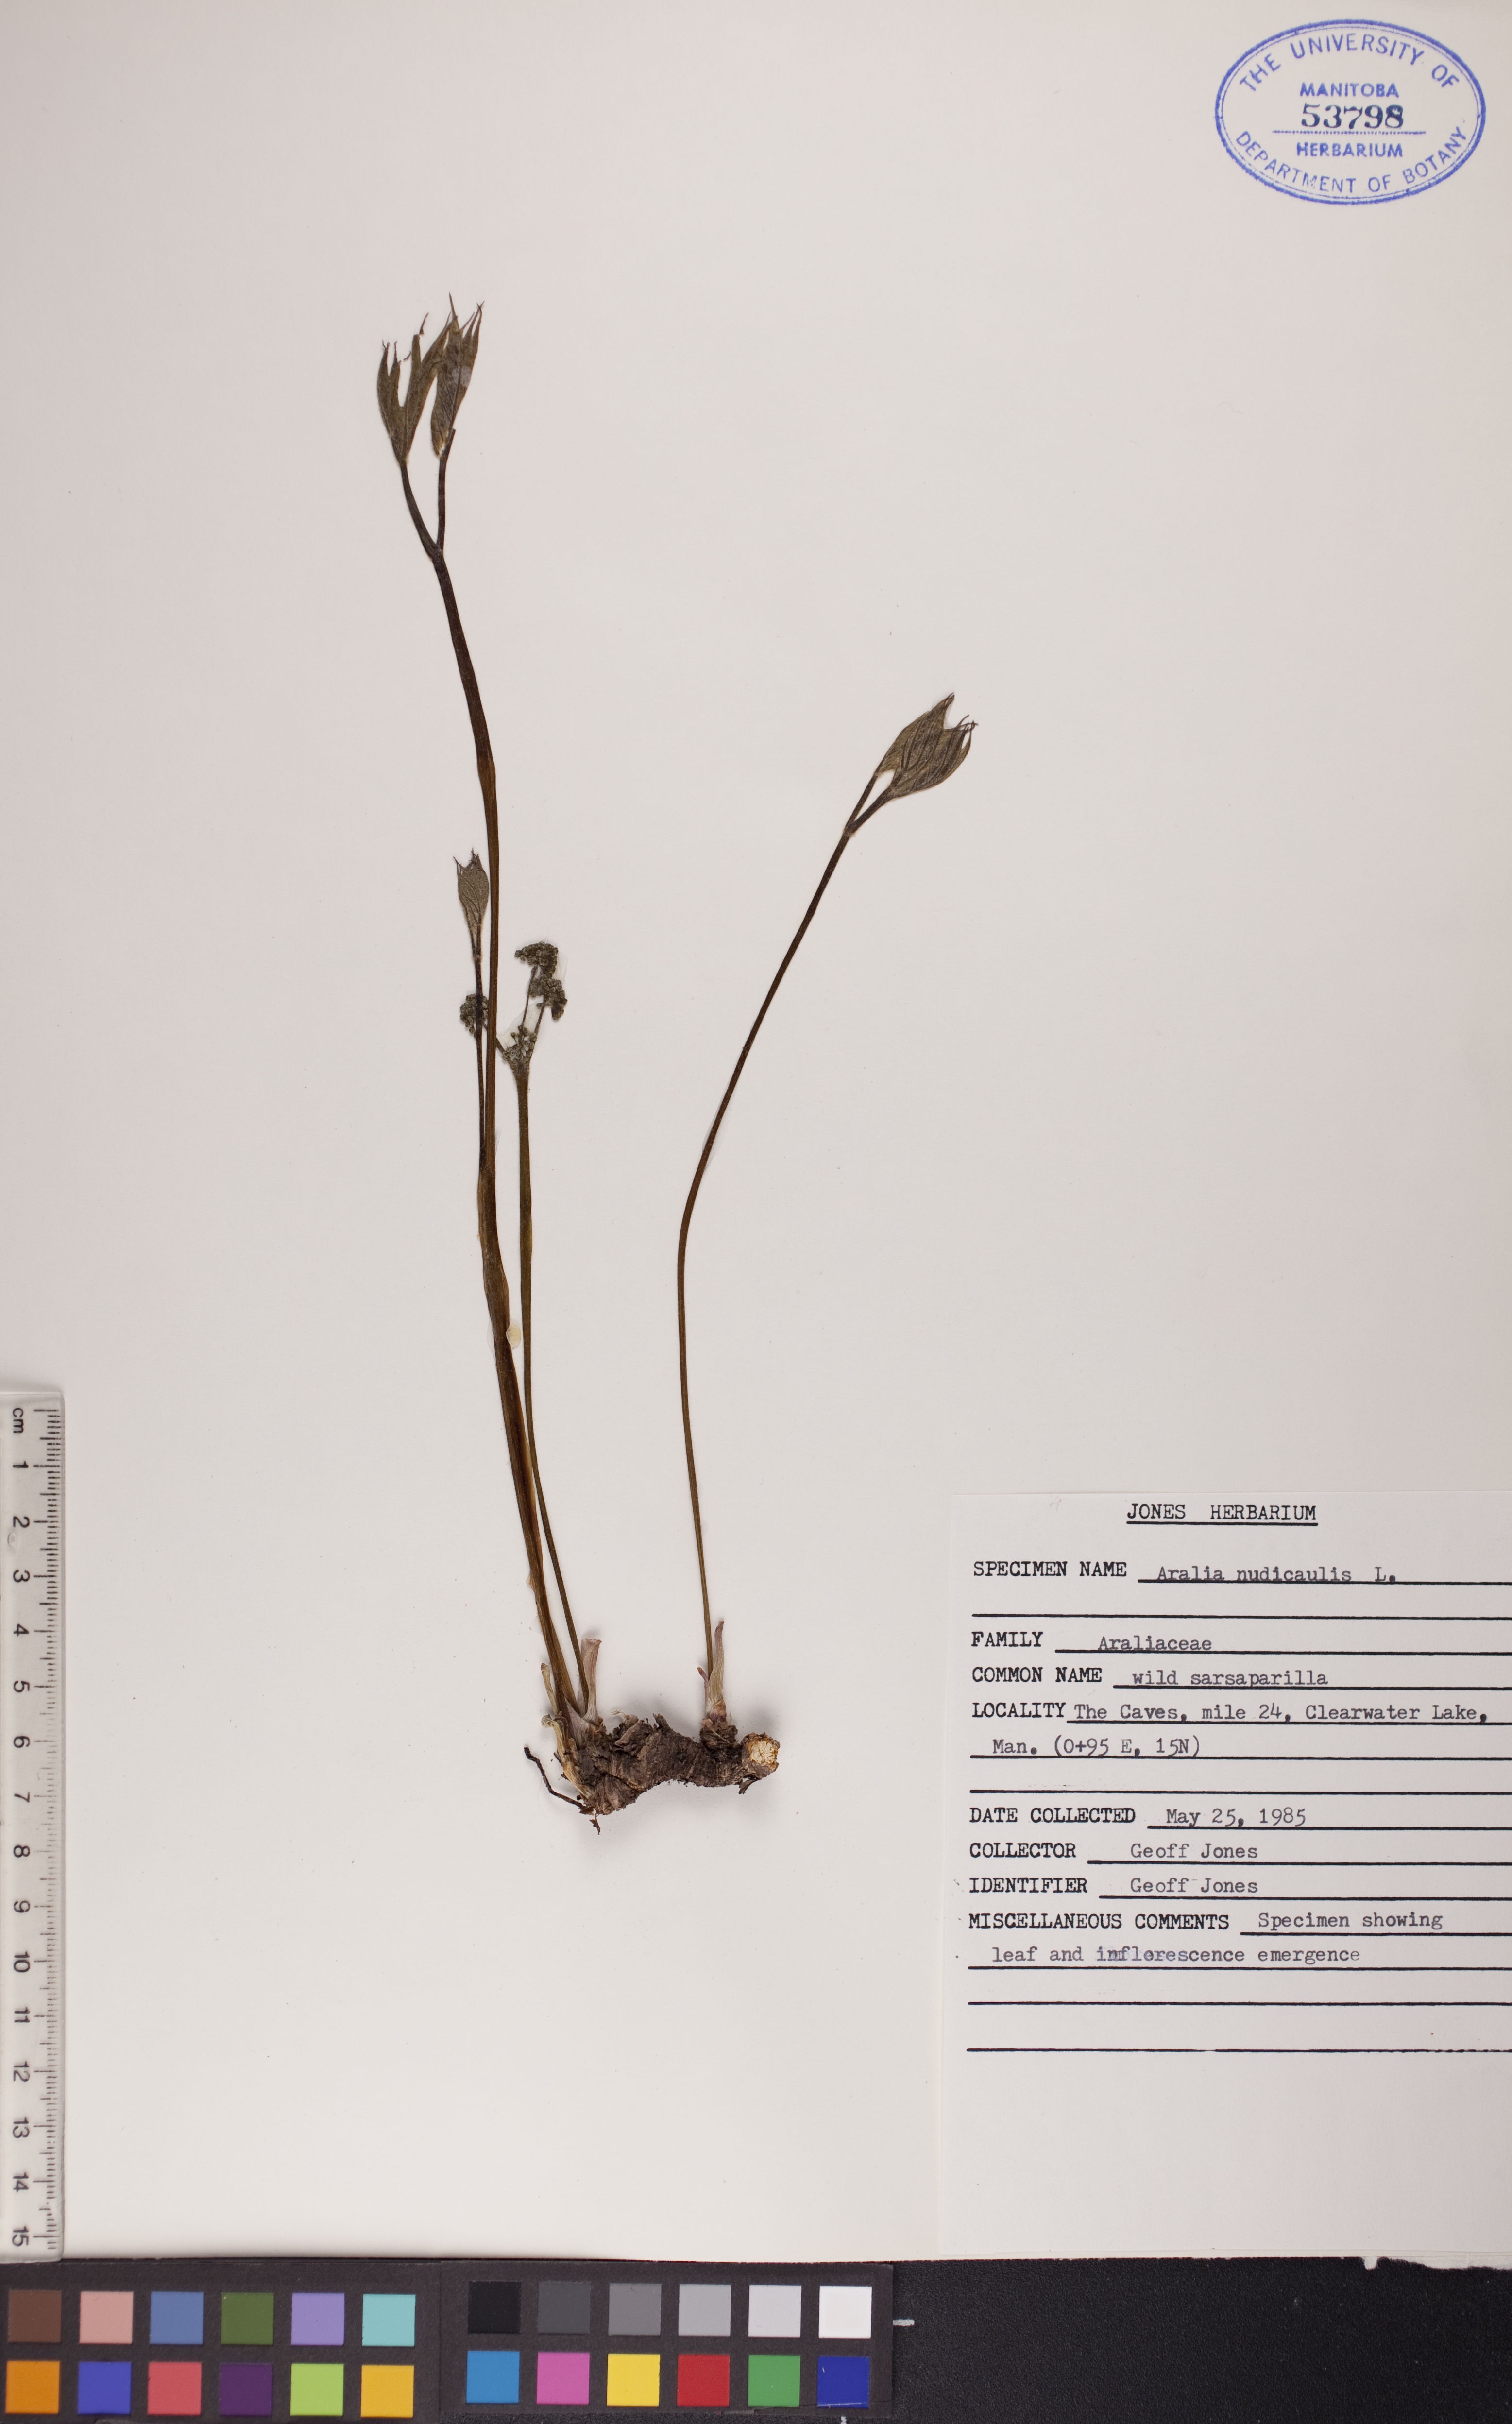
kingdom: Plantae
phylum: Tracheophyta
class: Magnoliopsida
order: Apiales
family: Araliaceae
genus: Aralia
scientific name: Aralia nudicaulis
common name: Wild sarsaparilla
